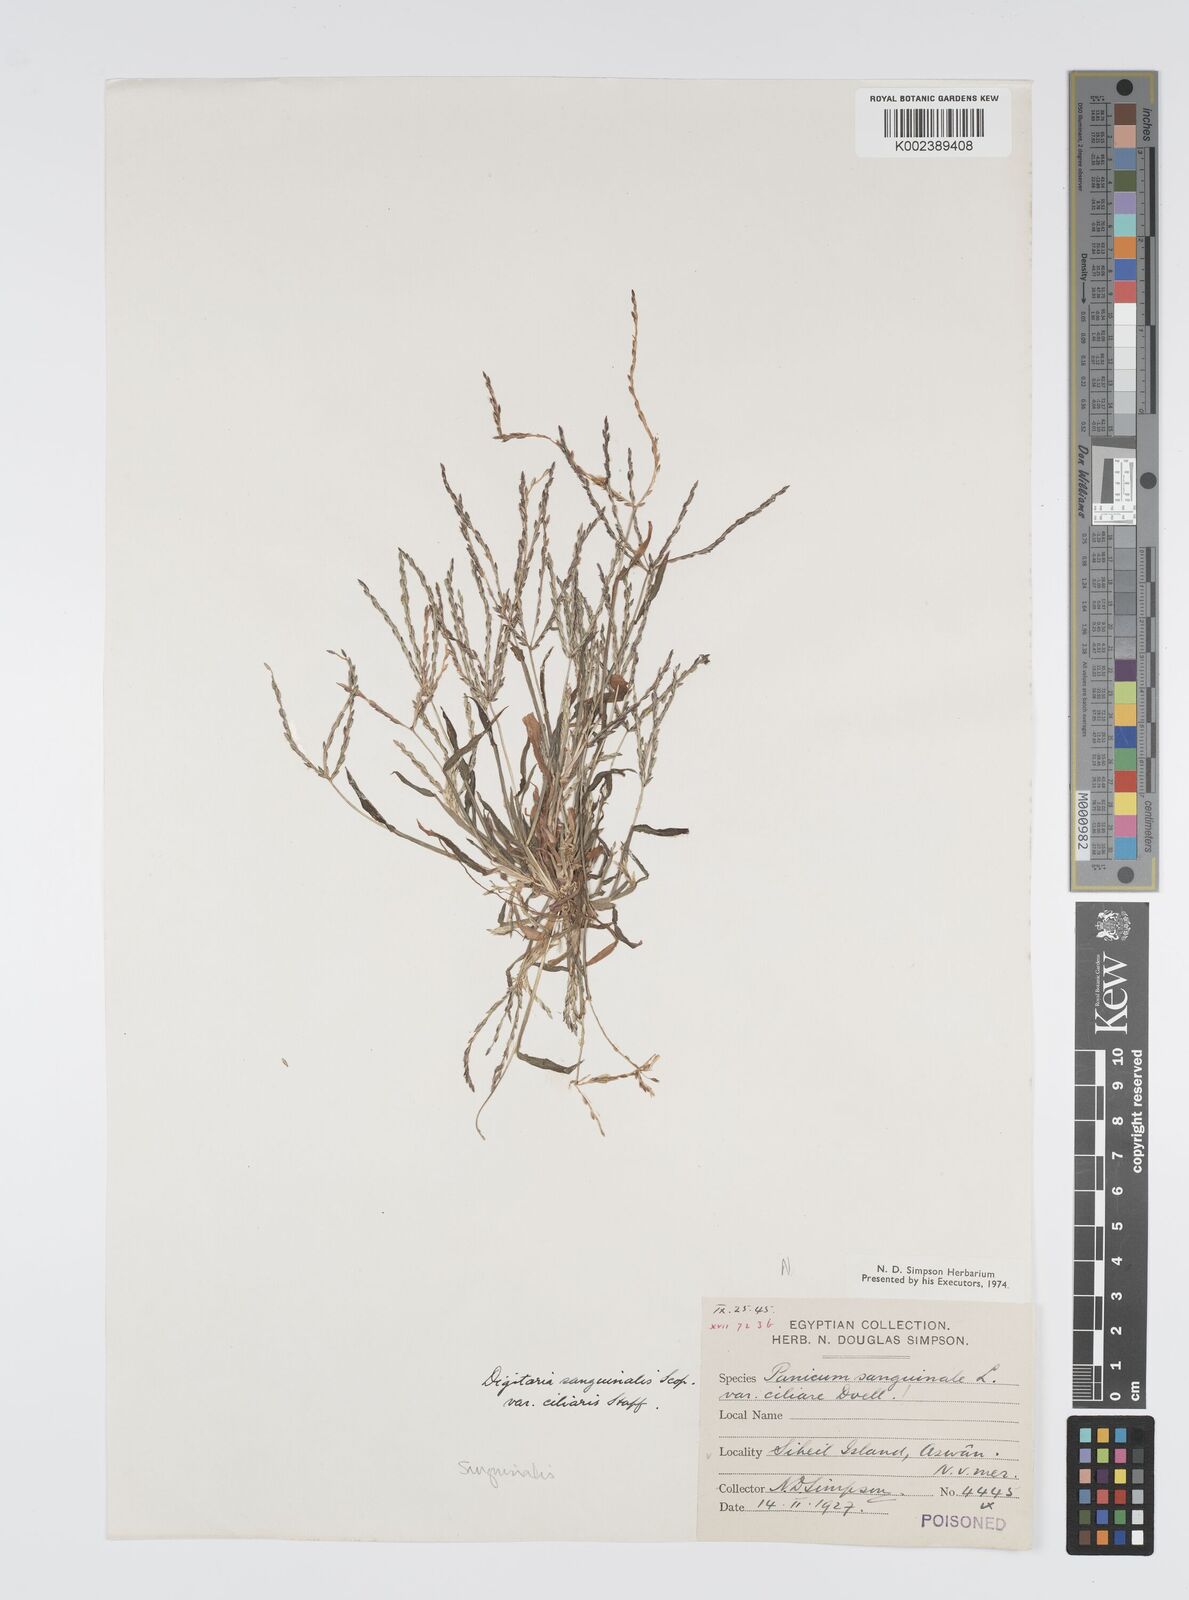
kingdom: Plantae
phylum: Tracheophyta
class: Liliopsida
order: Poales
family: Poaceae
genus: Digitaria
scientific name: Digitaria sanguinalis
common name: Hairy crabgrass
